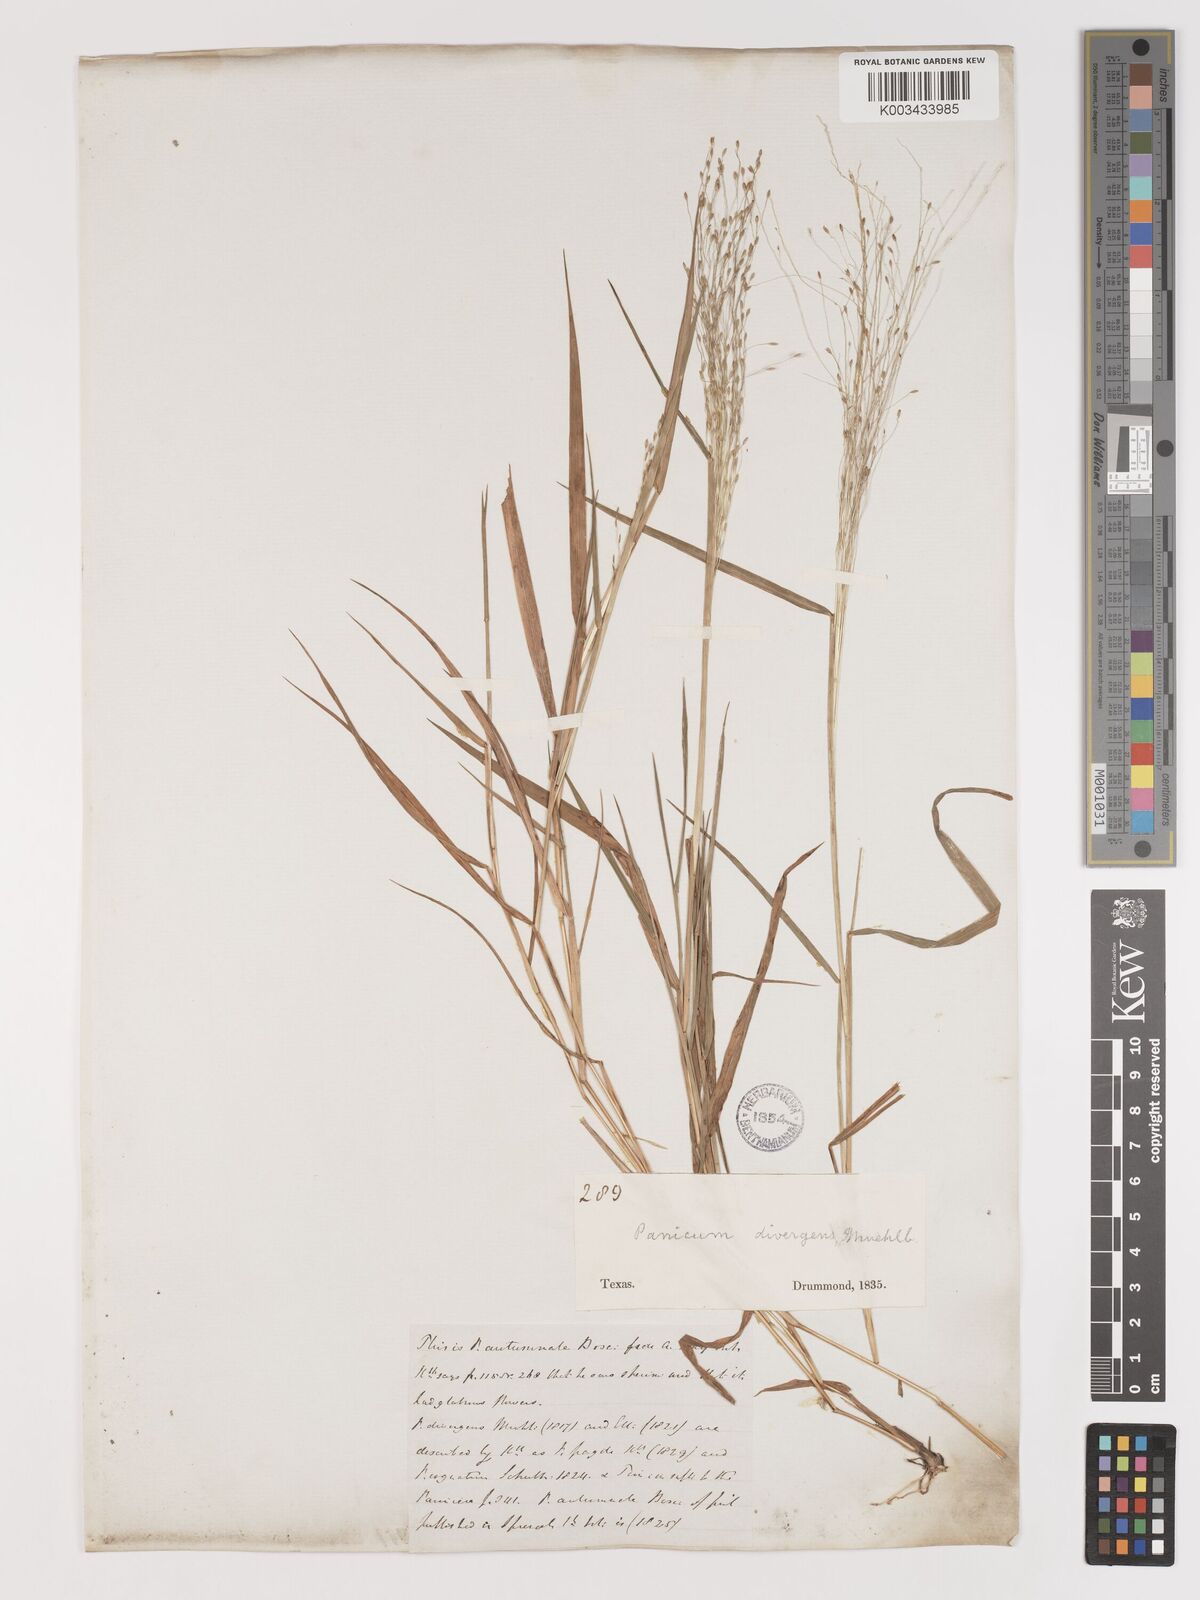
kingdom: Plantae
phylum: Tracheophyta
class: Liliopsida
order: Poales
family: Poaceae
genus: Digitaria
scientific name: Digitaria
